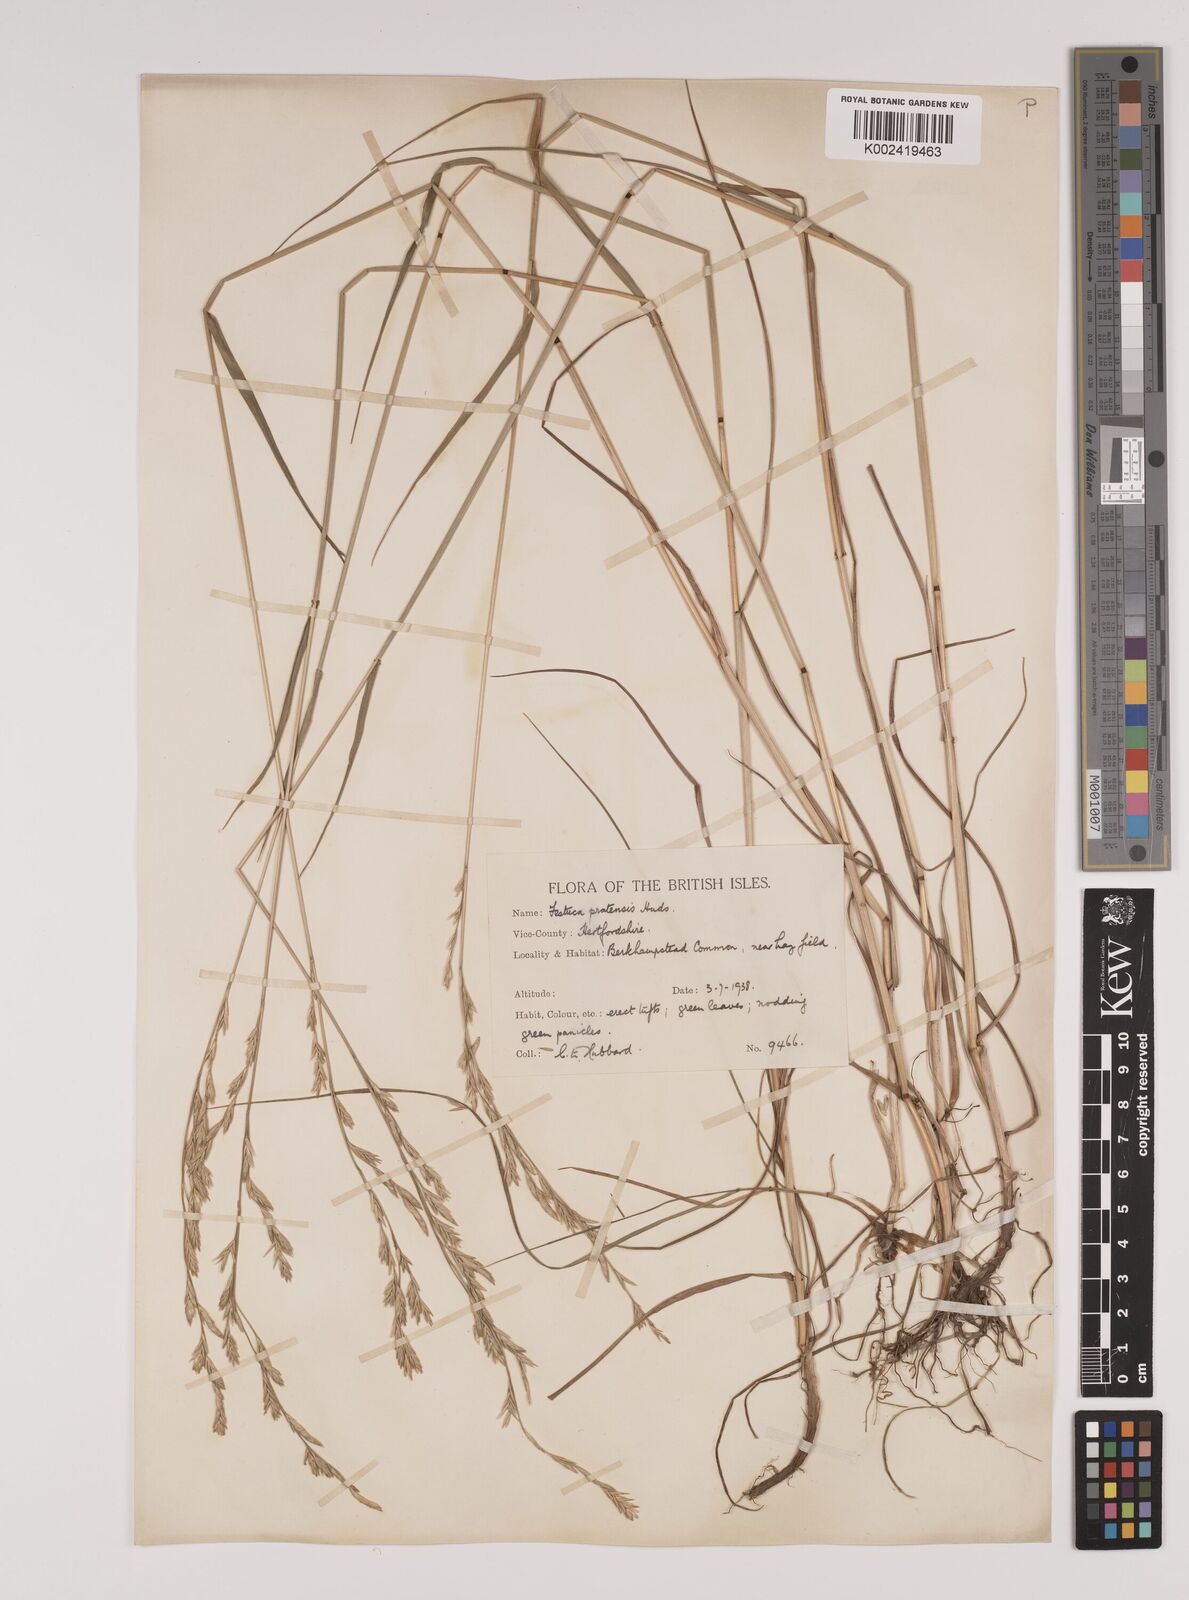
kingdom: Plantae
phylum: Tracheophyta
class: Liliopsida
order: Poales
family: Poaceae
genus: Lolium
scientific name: Lolium pratense
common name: Dover grass
